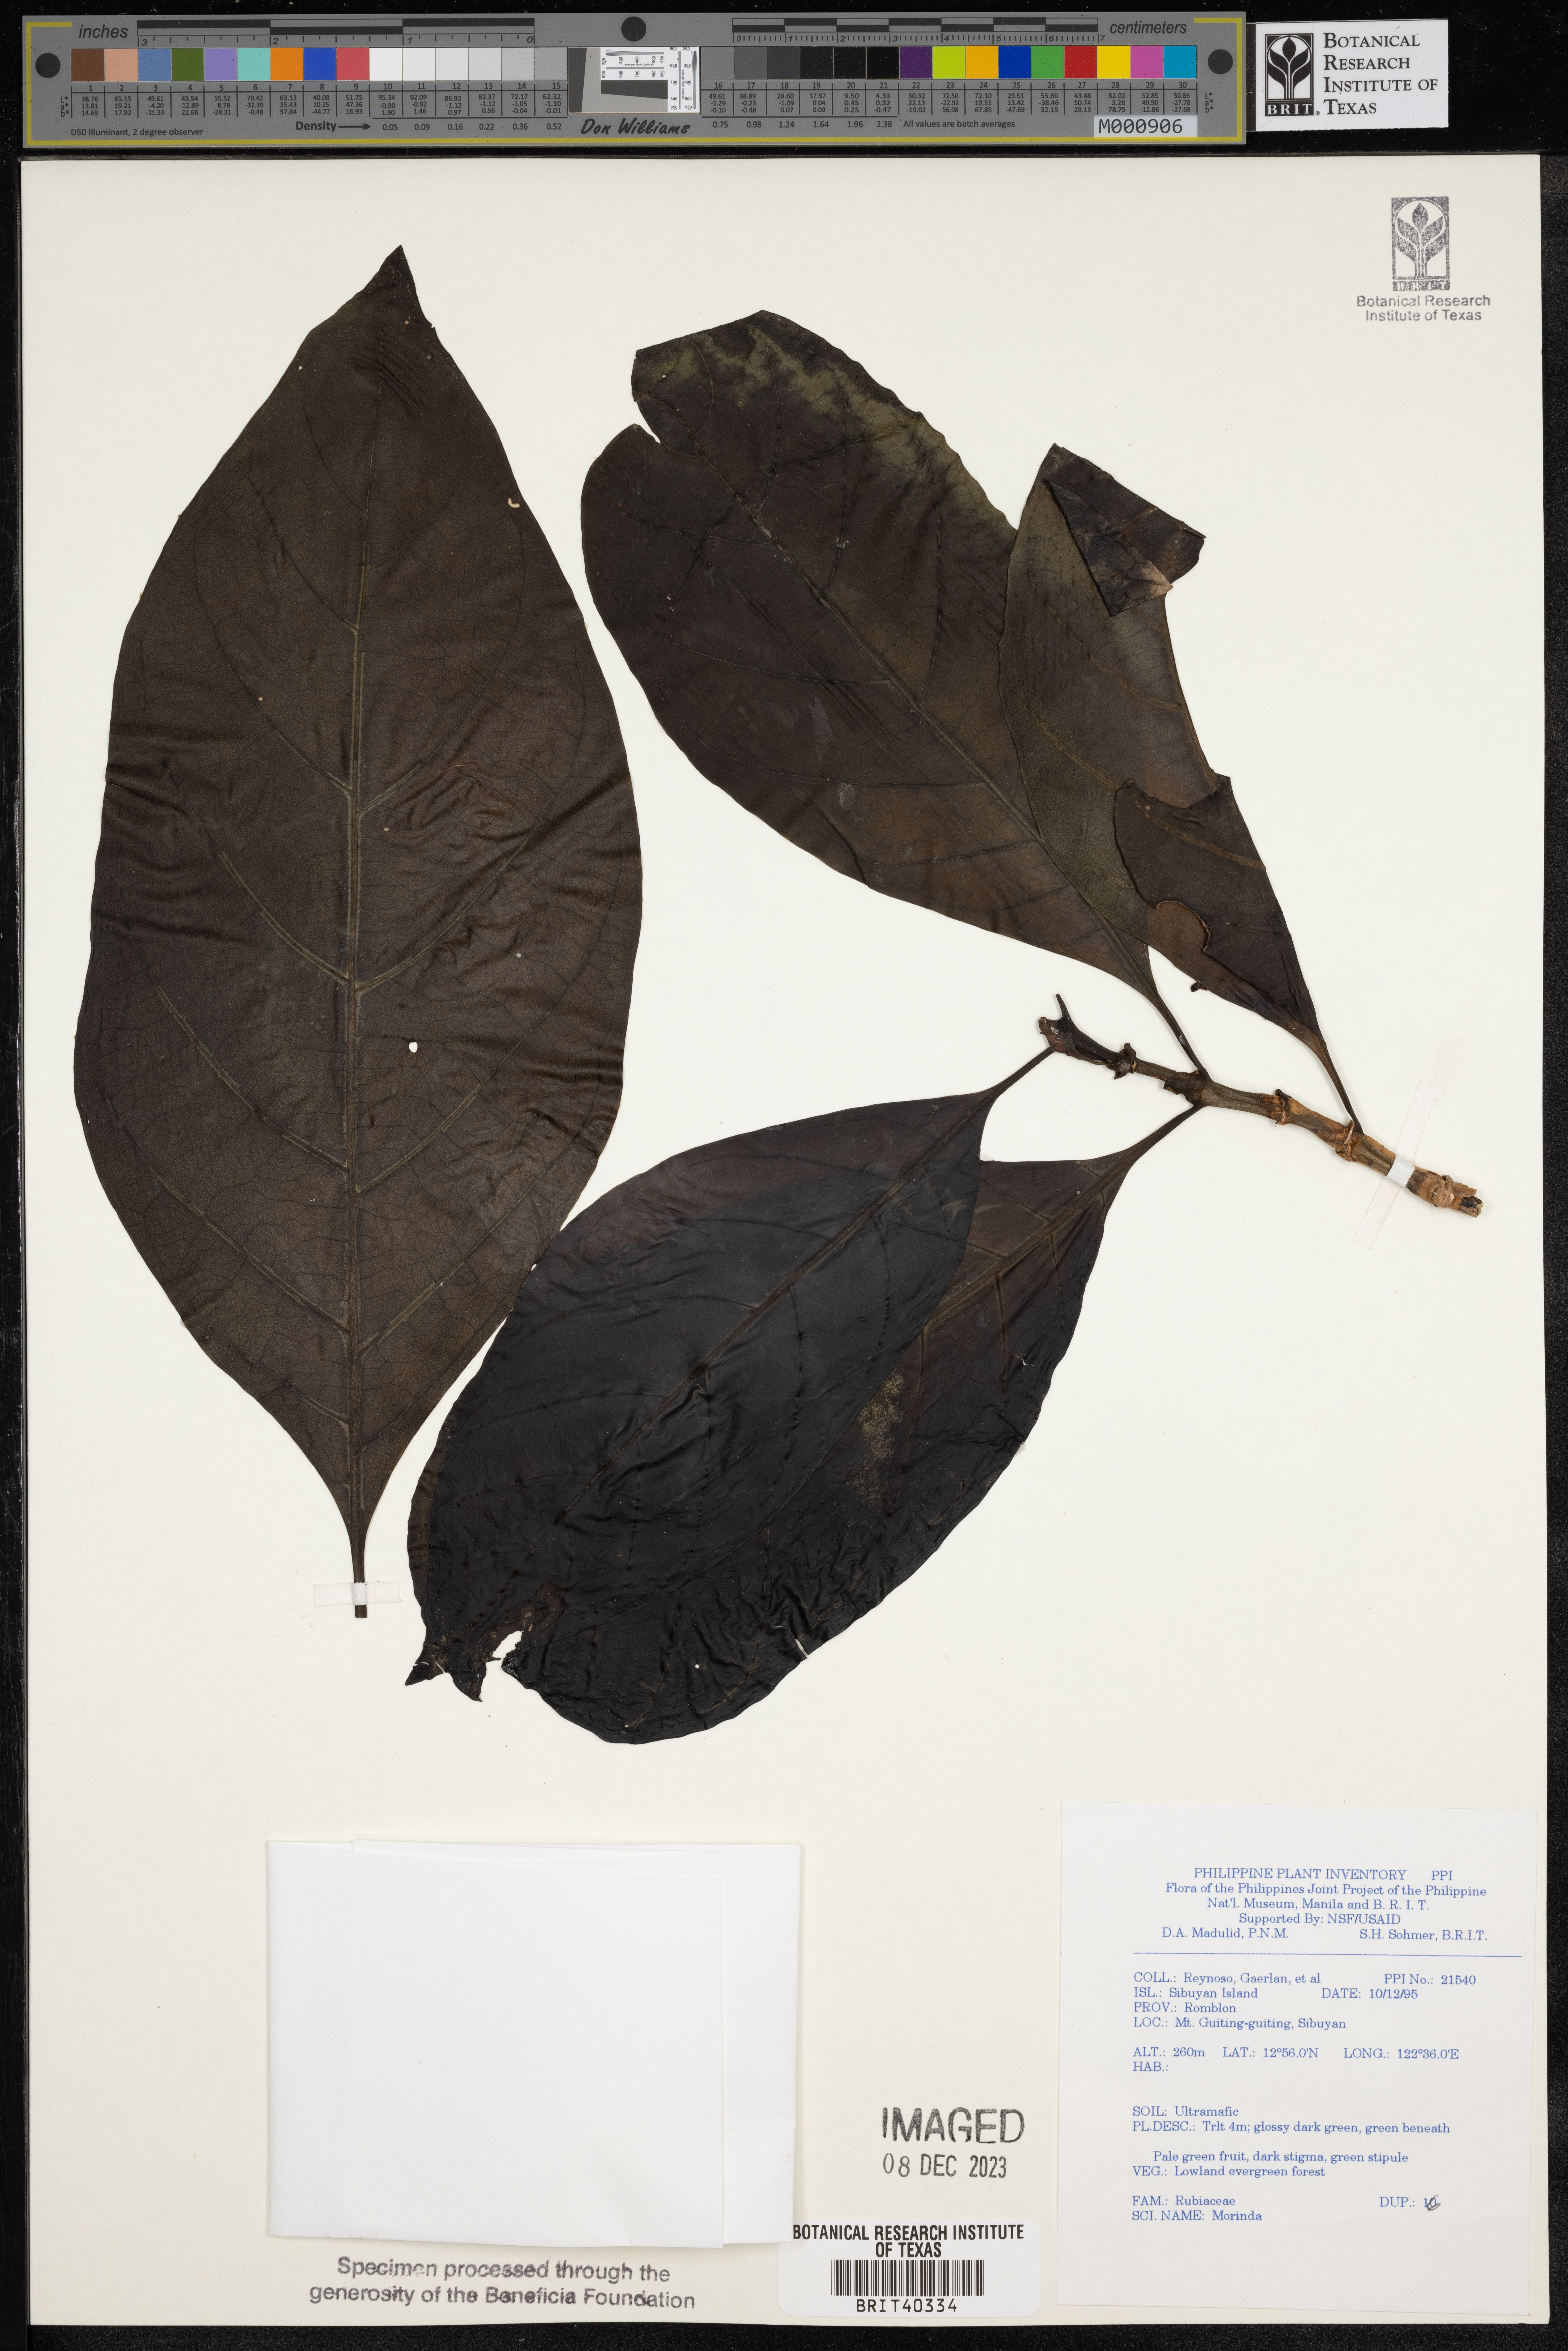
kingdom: Plantae
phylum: Tracheophyta
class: Magnoliopsida
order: Gentianales
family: Rubiaceae
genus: Morinda
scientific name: Morinda
